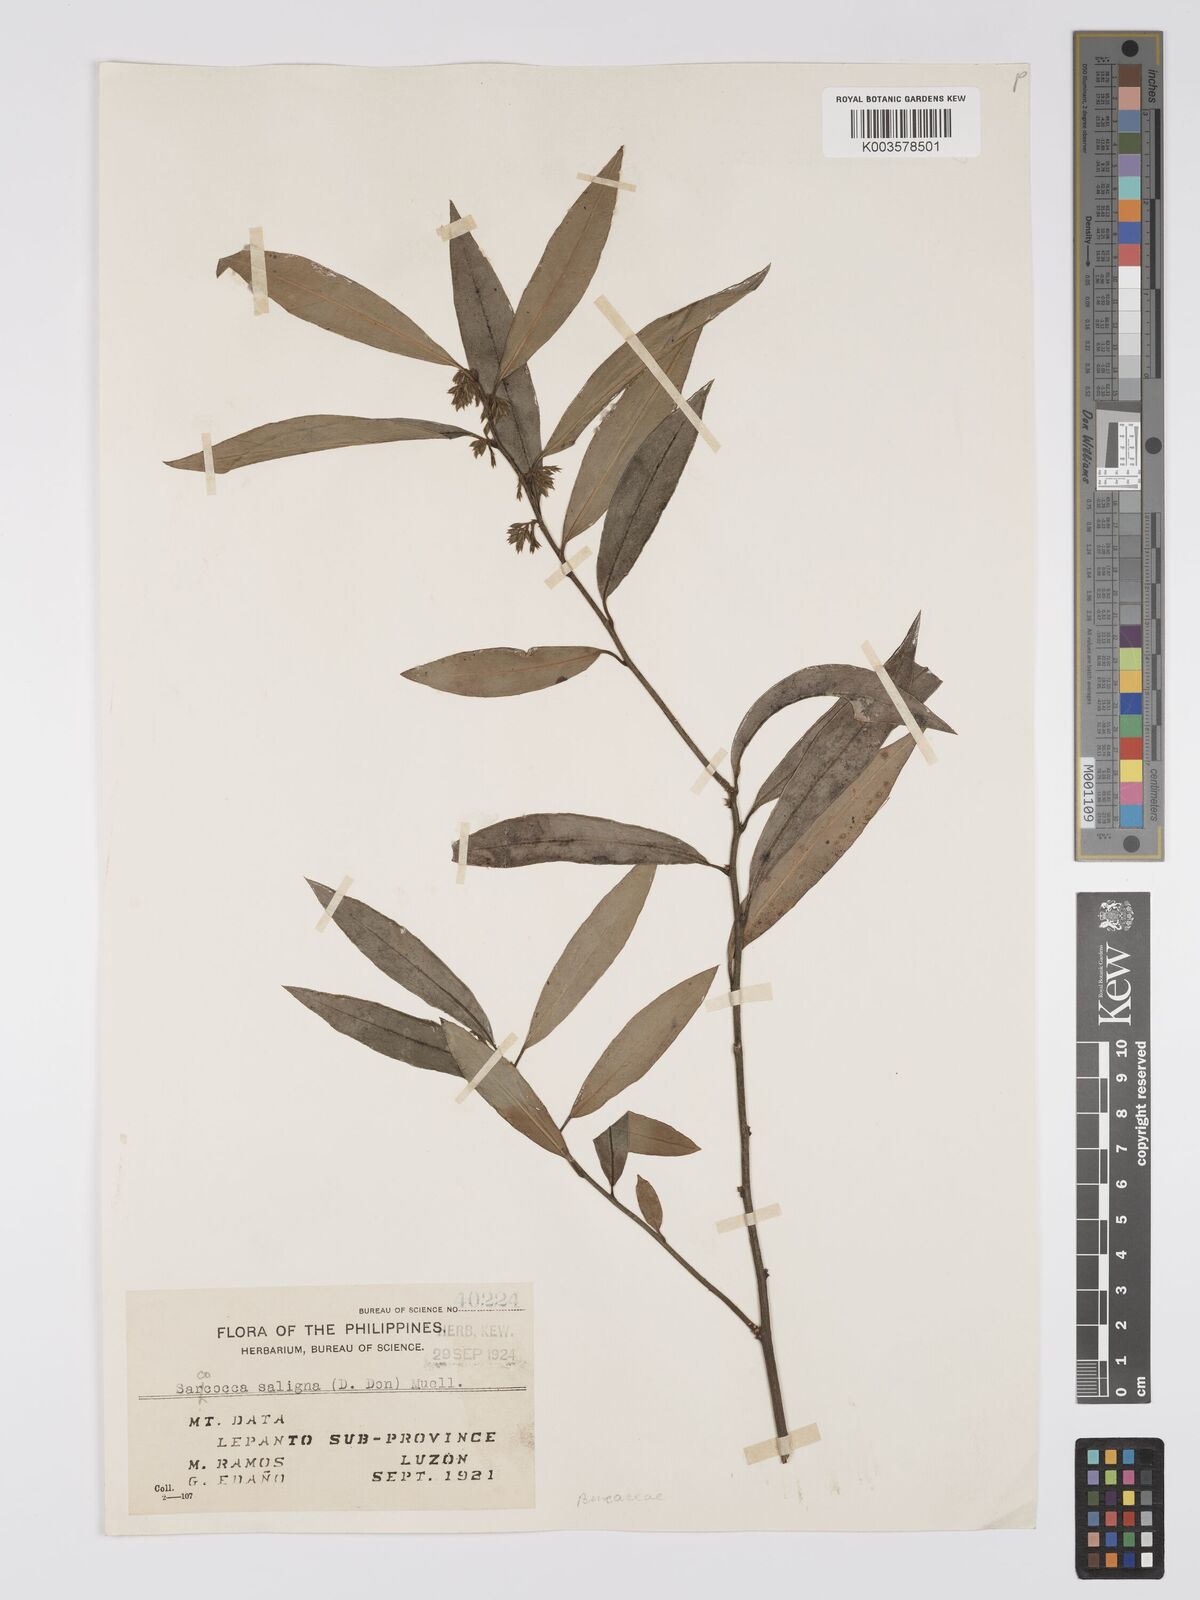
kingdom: Plantae
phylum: Tracheophyta
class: Magnoliopsida
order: Buxales
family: Buxaceae
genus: Sarcococca
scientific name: Sarcococca saligna
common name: Willow-leaf sweet-box
